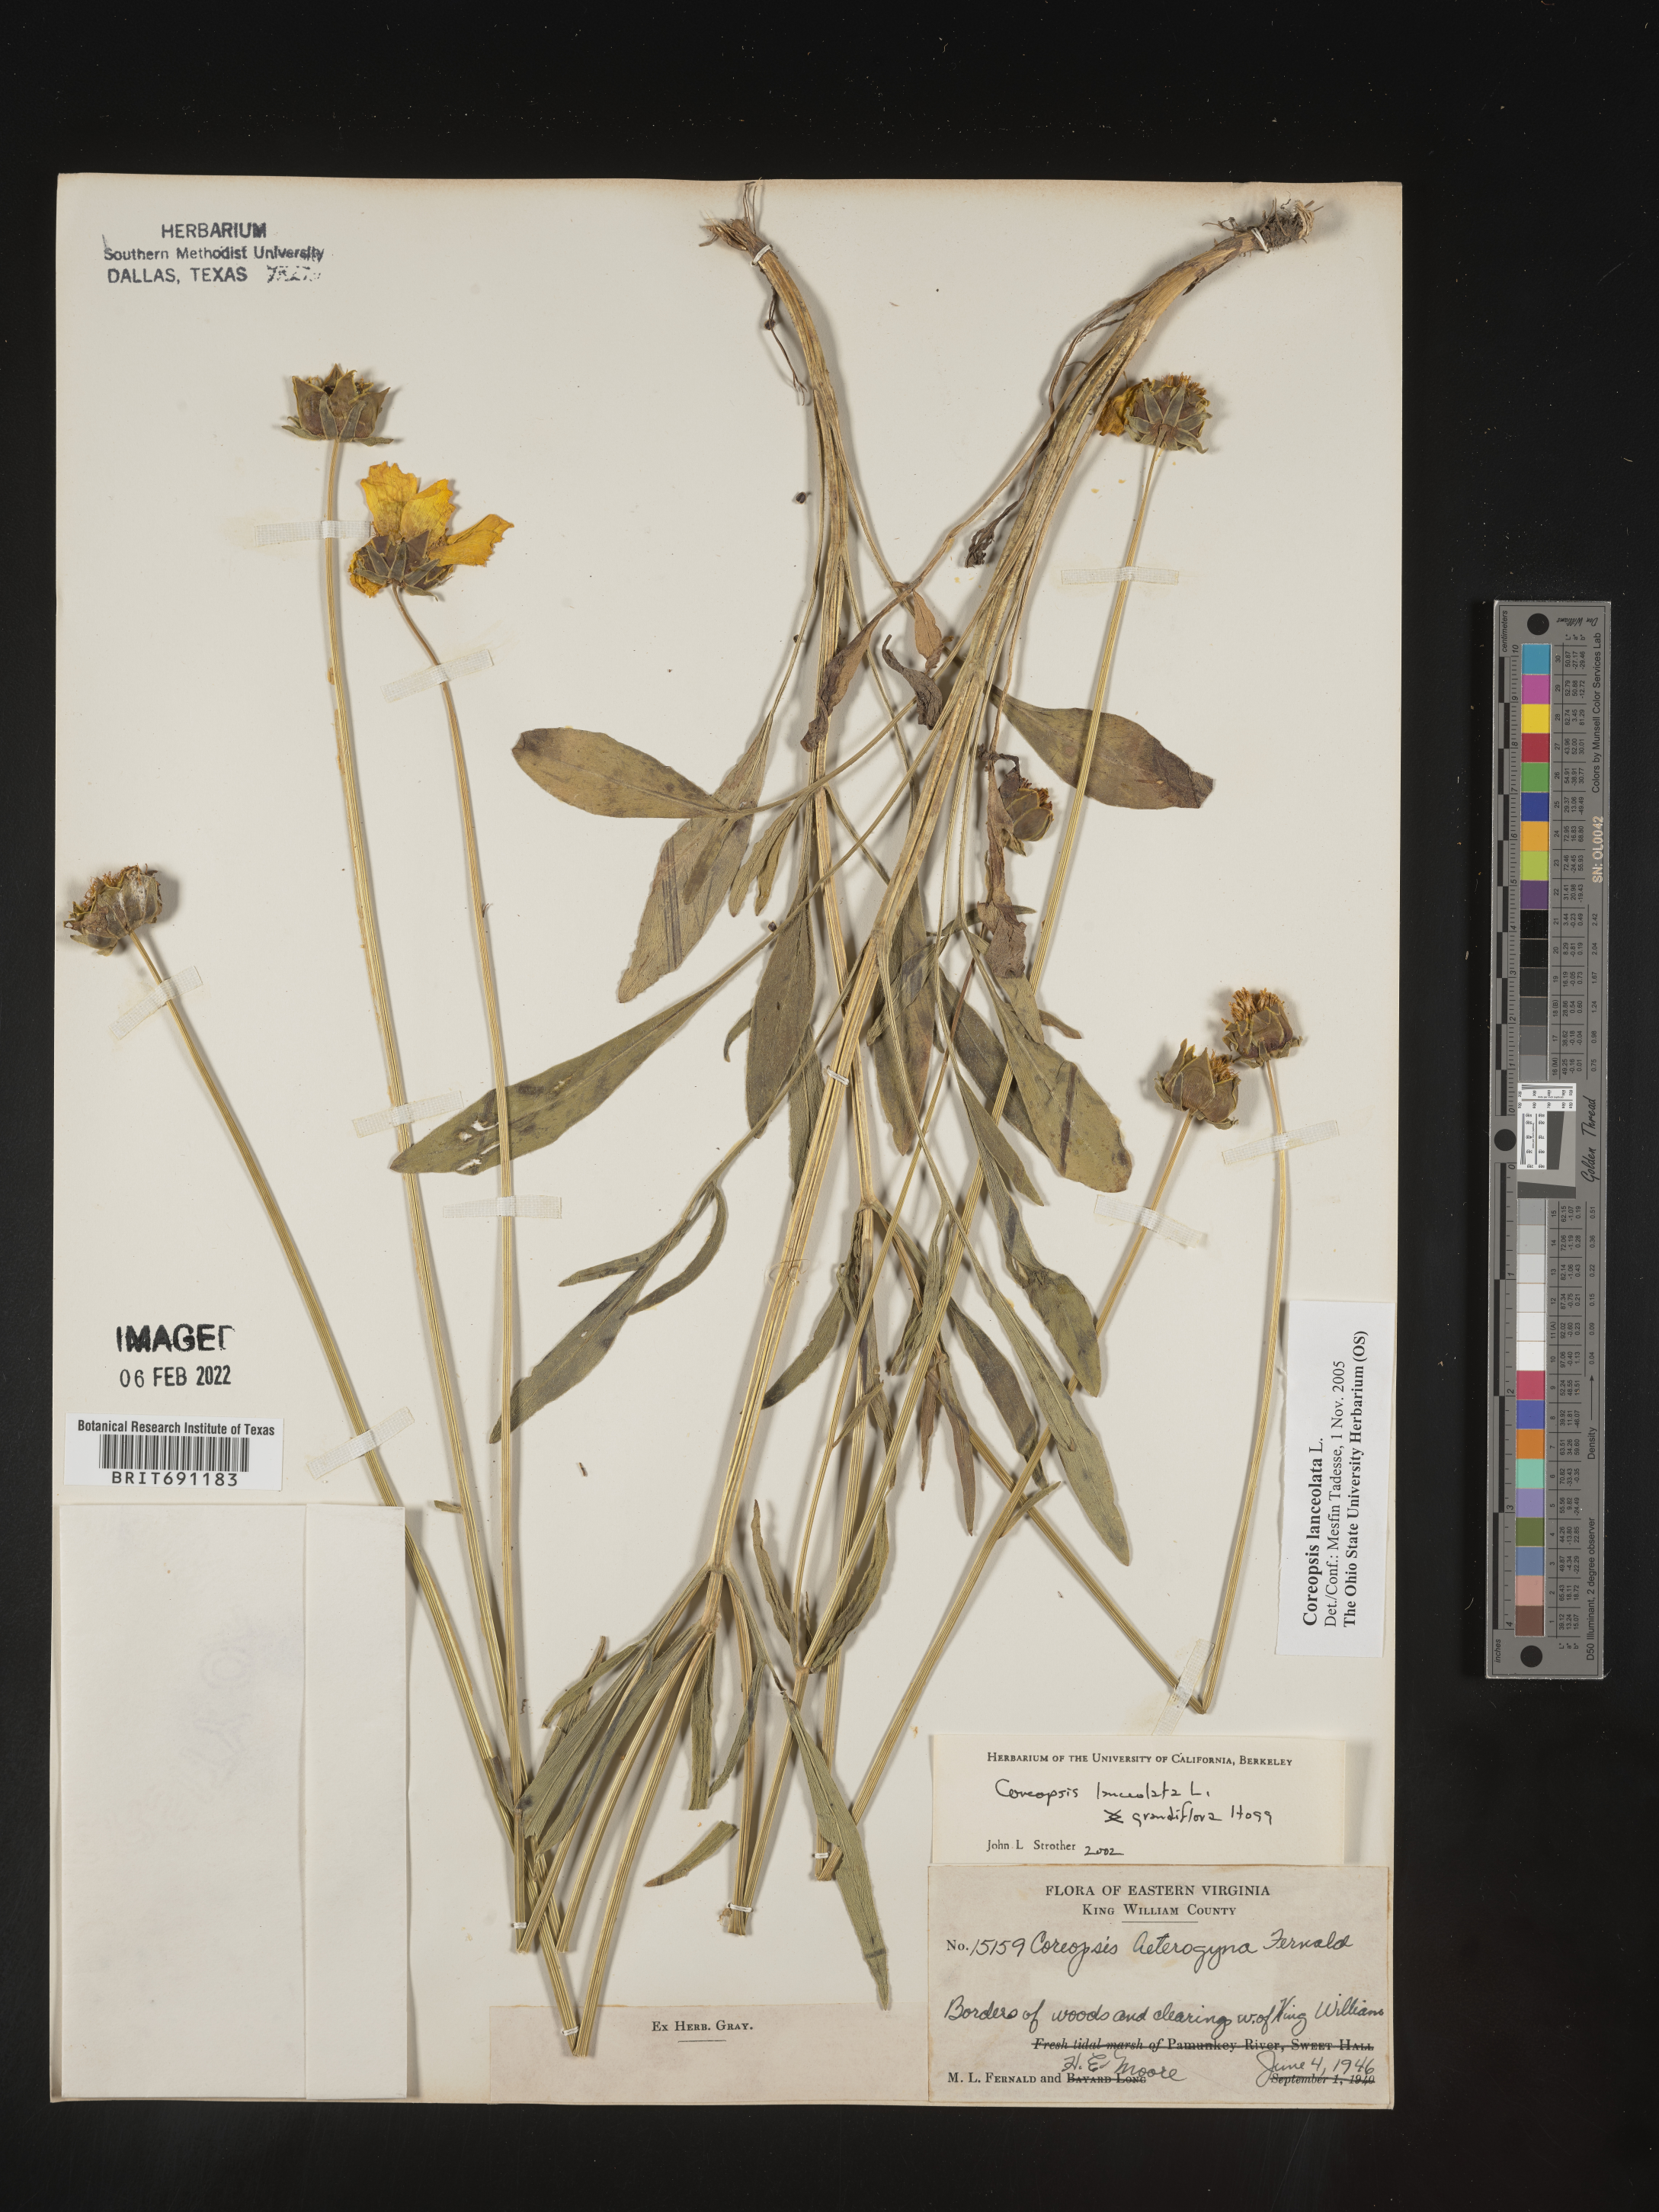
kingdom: Plantae
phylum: Tracheophyta
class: Magnoliopsida
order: Asterales
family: Asteraceae
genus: Coreopsis
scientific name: Coreopsis lanceolata
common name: Garden coreopsis
